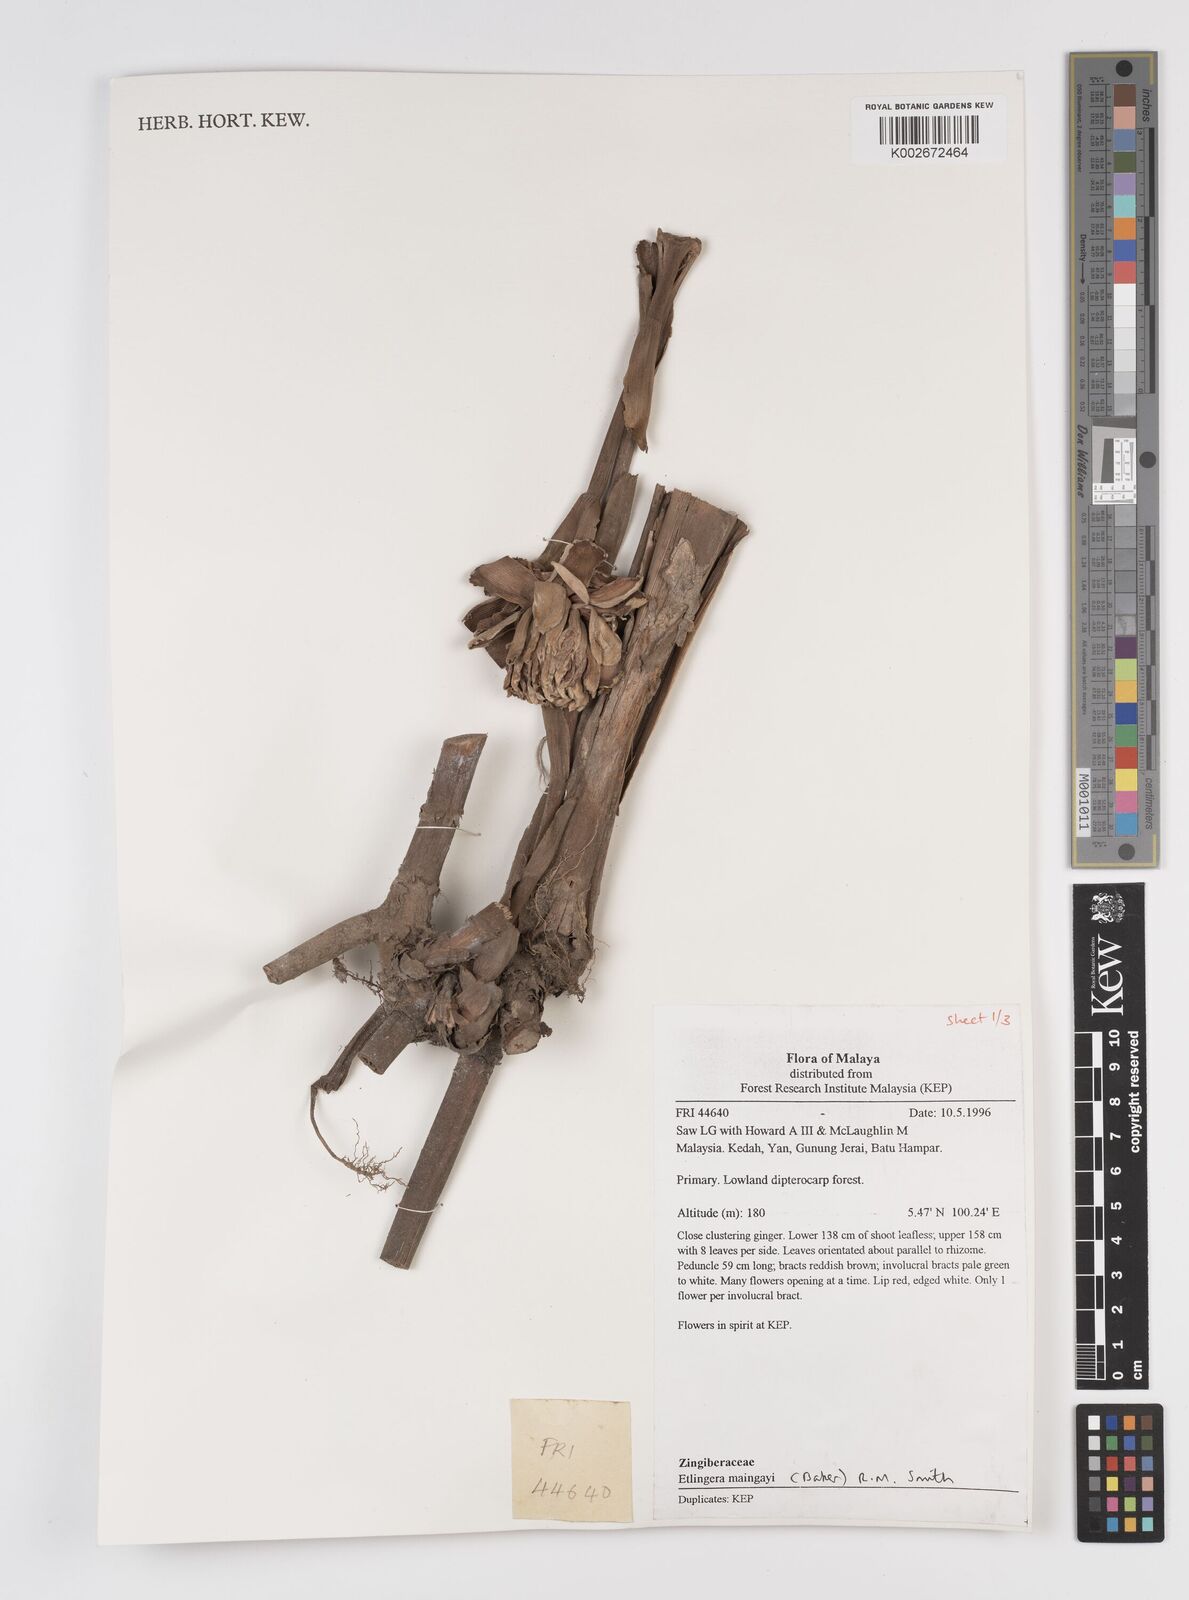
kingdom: Plantae
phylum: Tracheophyta
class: Liliopsida
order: Zingiberales
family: Zingiberaceae
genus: Etlingera
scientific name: Etlingera maingayi
